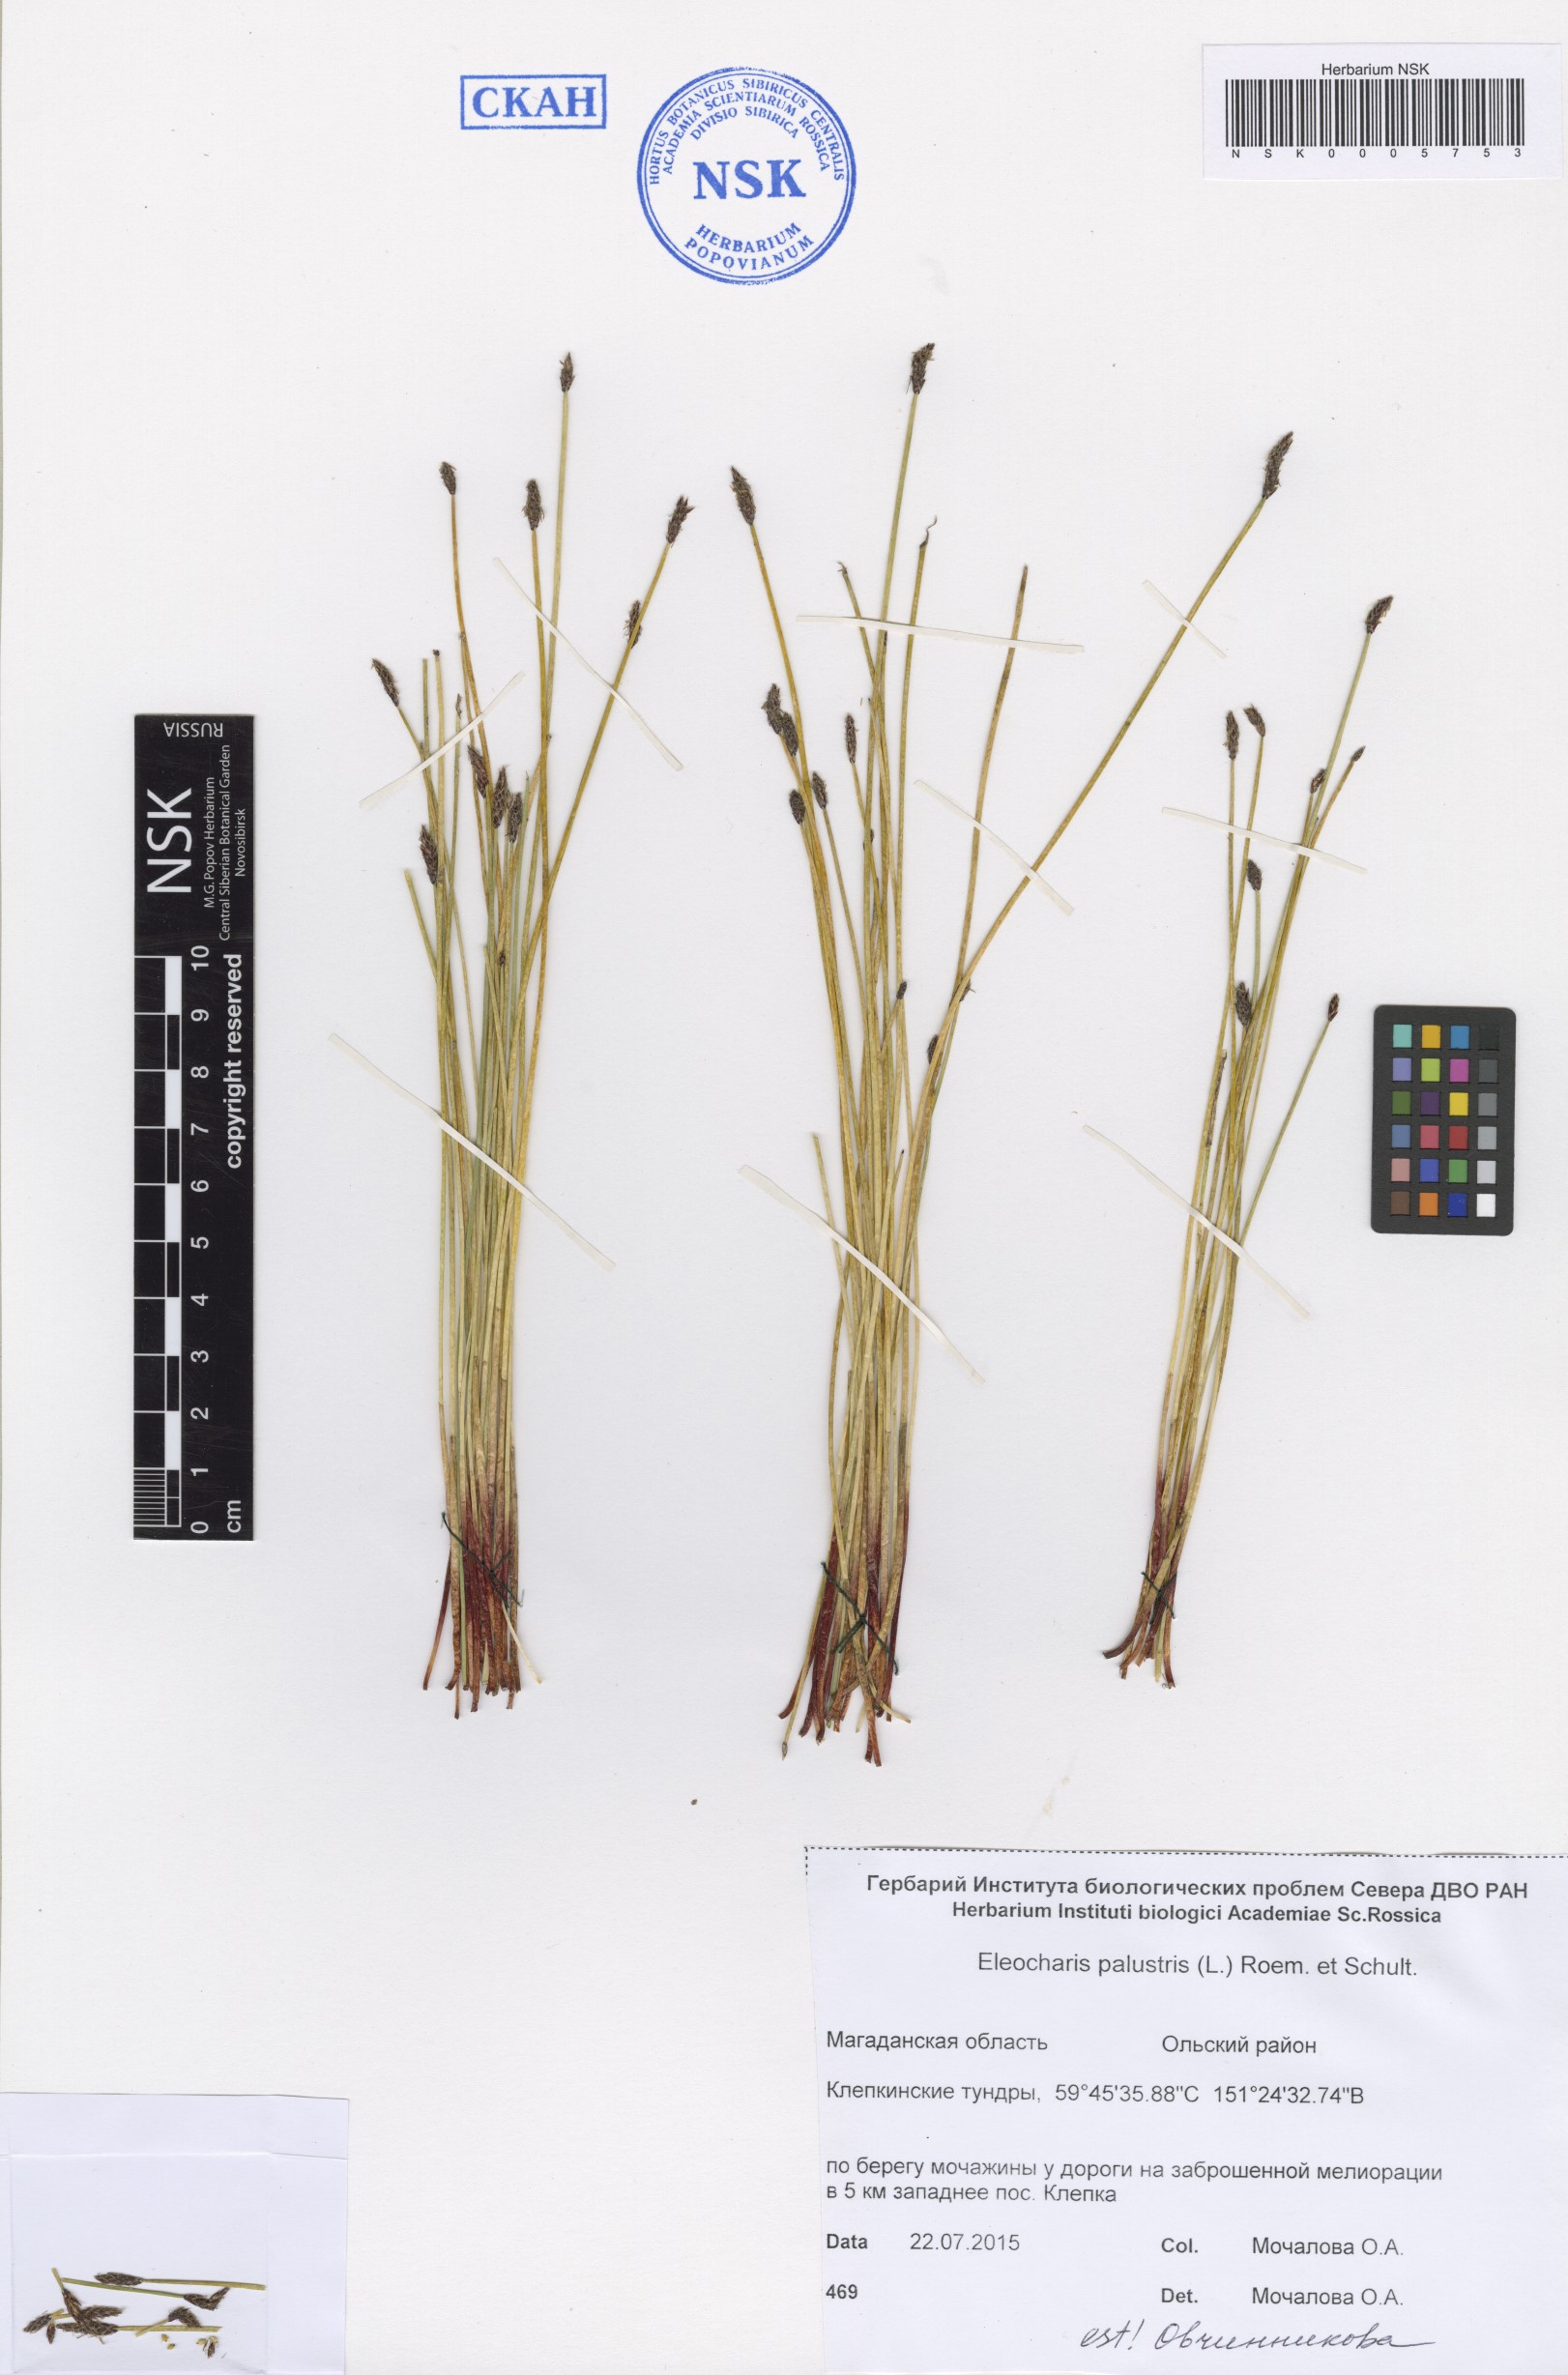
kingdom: Plantae
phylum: Tracheophyta
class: Liliopsida
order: Poales
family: Cyperaceae
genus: Eleocharis
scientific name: Eleocharis palustris
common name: Common spike-rush
